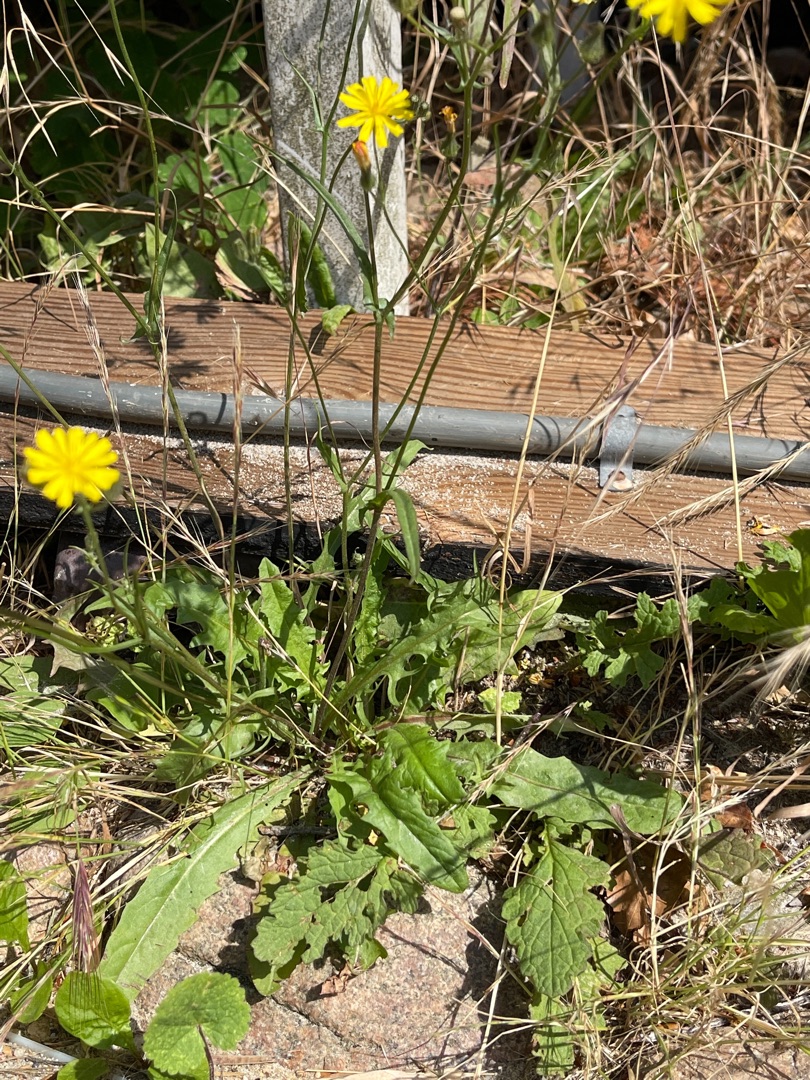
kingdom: Plantae
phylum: Tracheophyta
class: Magnoliopsida
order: Asterales
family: Asteraceae
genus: Crepis
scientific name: Crepis capillaris
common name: Grøn høgeskæg
